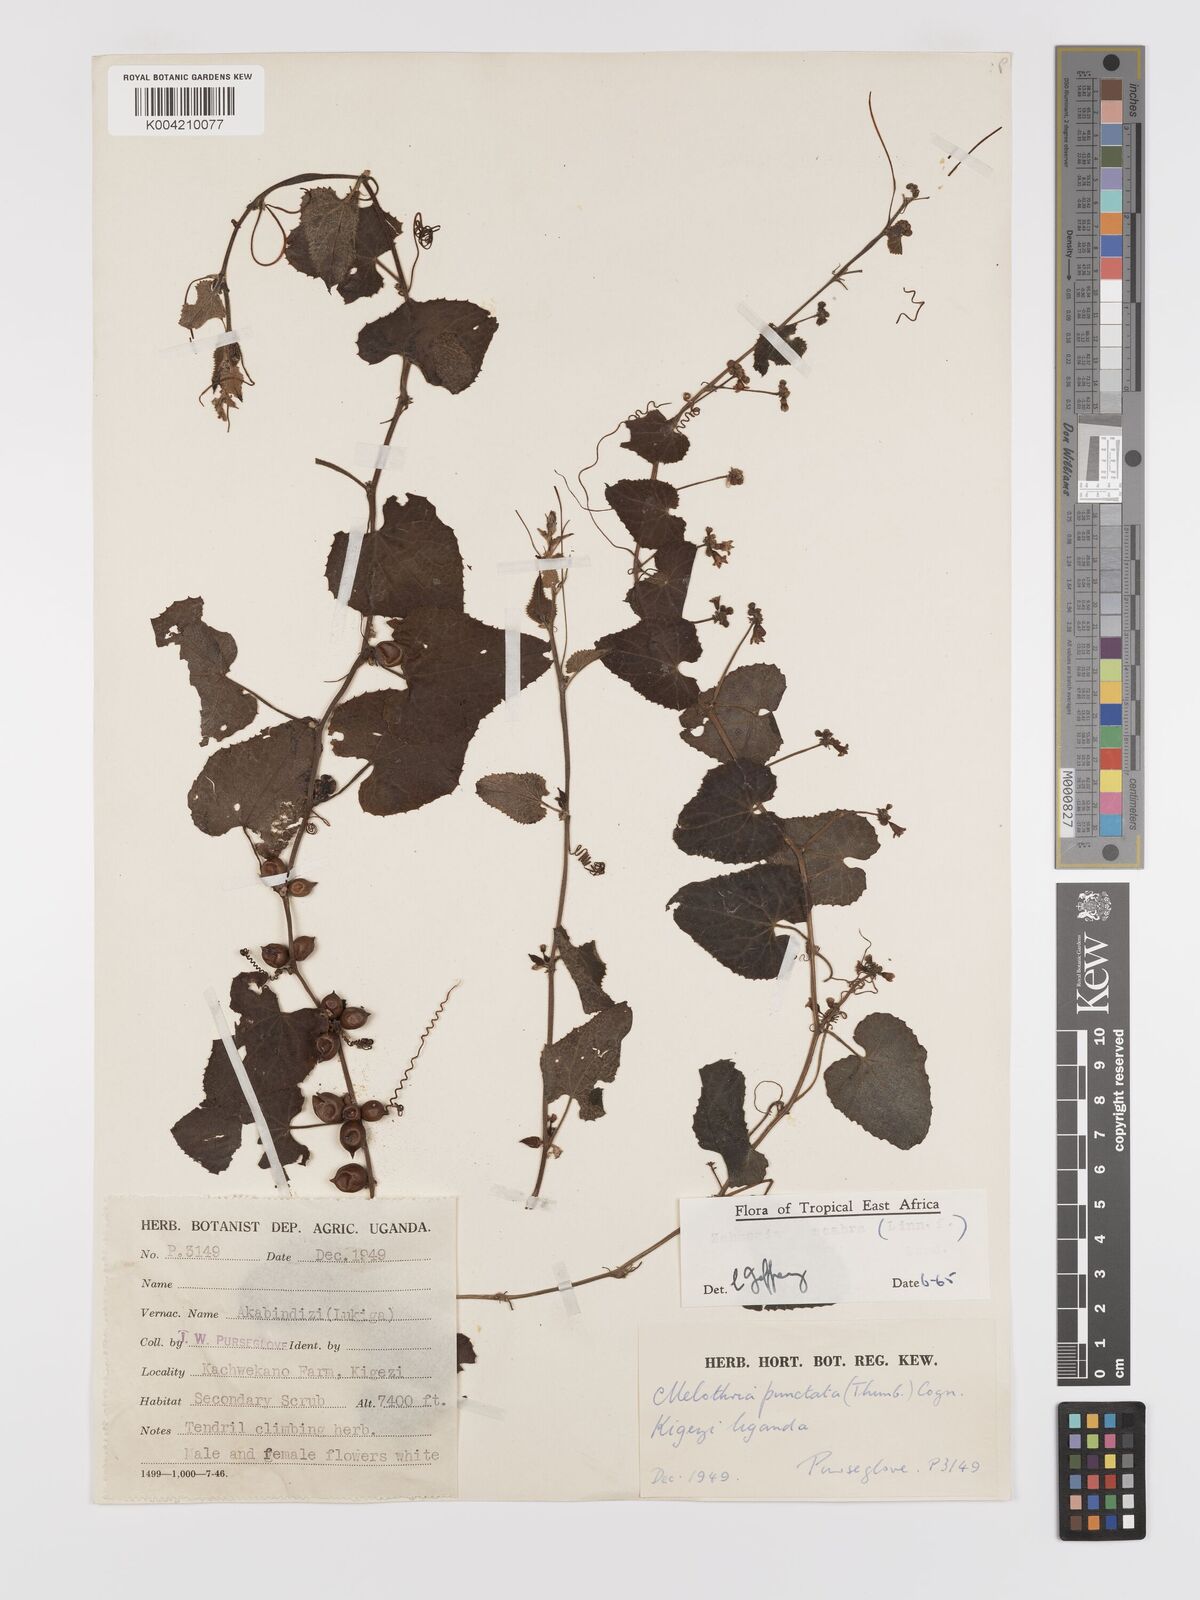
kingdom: Plantae
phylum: Tracheophyta
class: Magnoliopsida
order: Cucurbitales
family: Cucurbitaceae
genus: Zehneria
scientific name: Zehneria scabra
